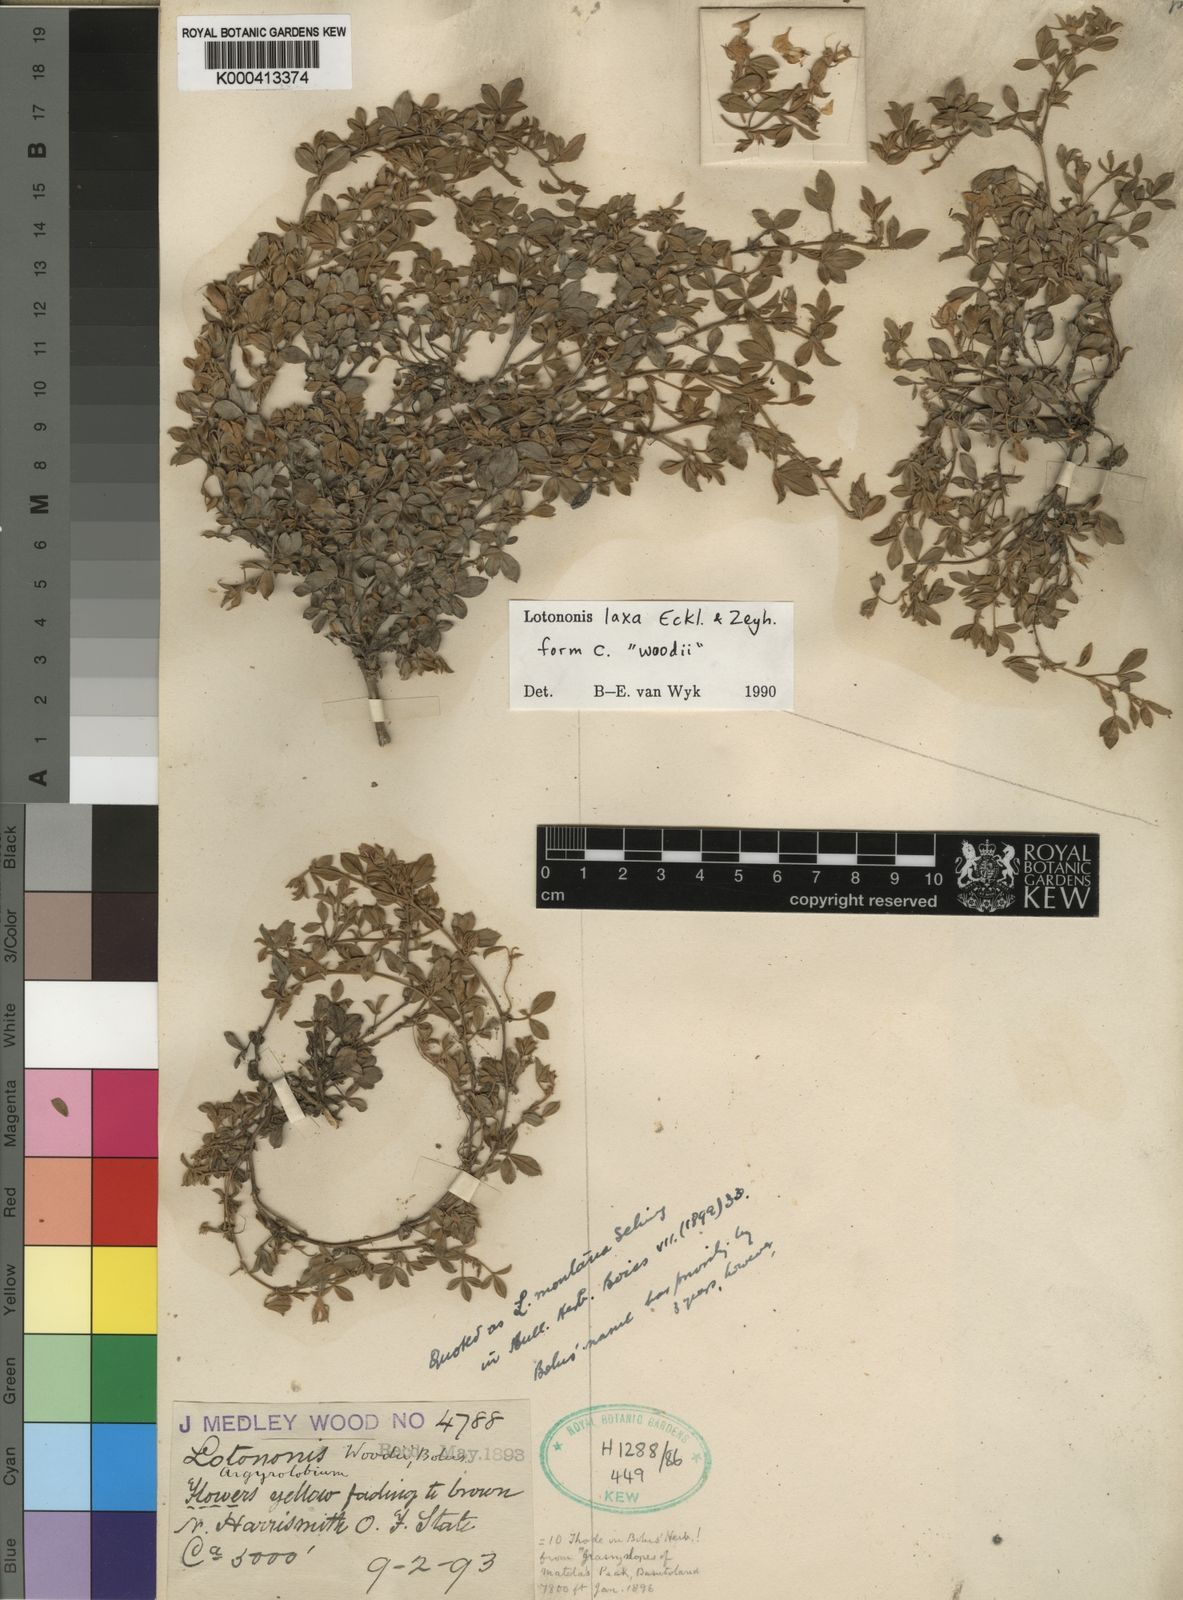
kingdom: Plantae
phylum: Tracheophyta
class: Magnoliopsida
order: Fabales
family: Fabaceae
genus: Lotononis
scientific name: Lotononis laxa
